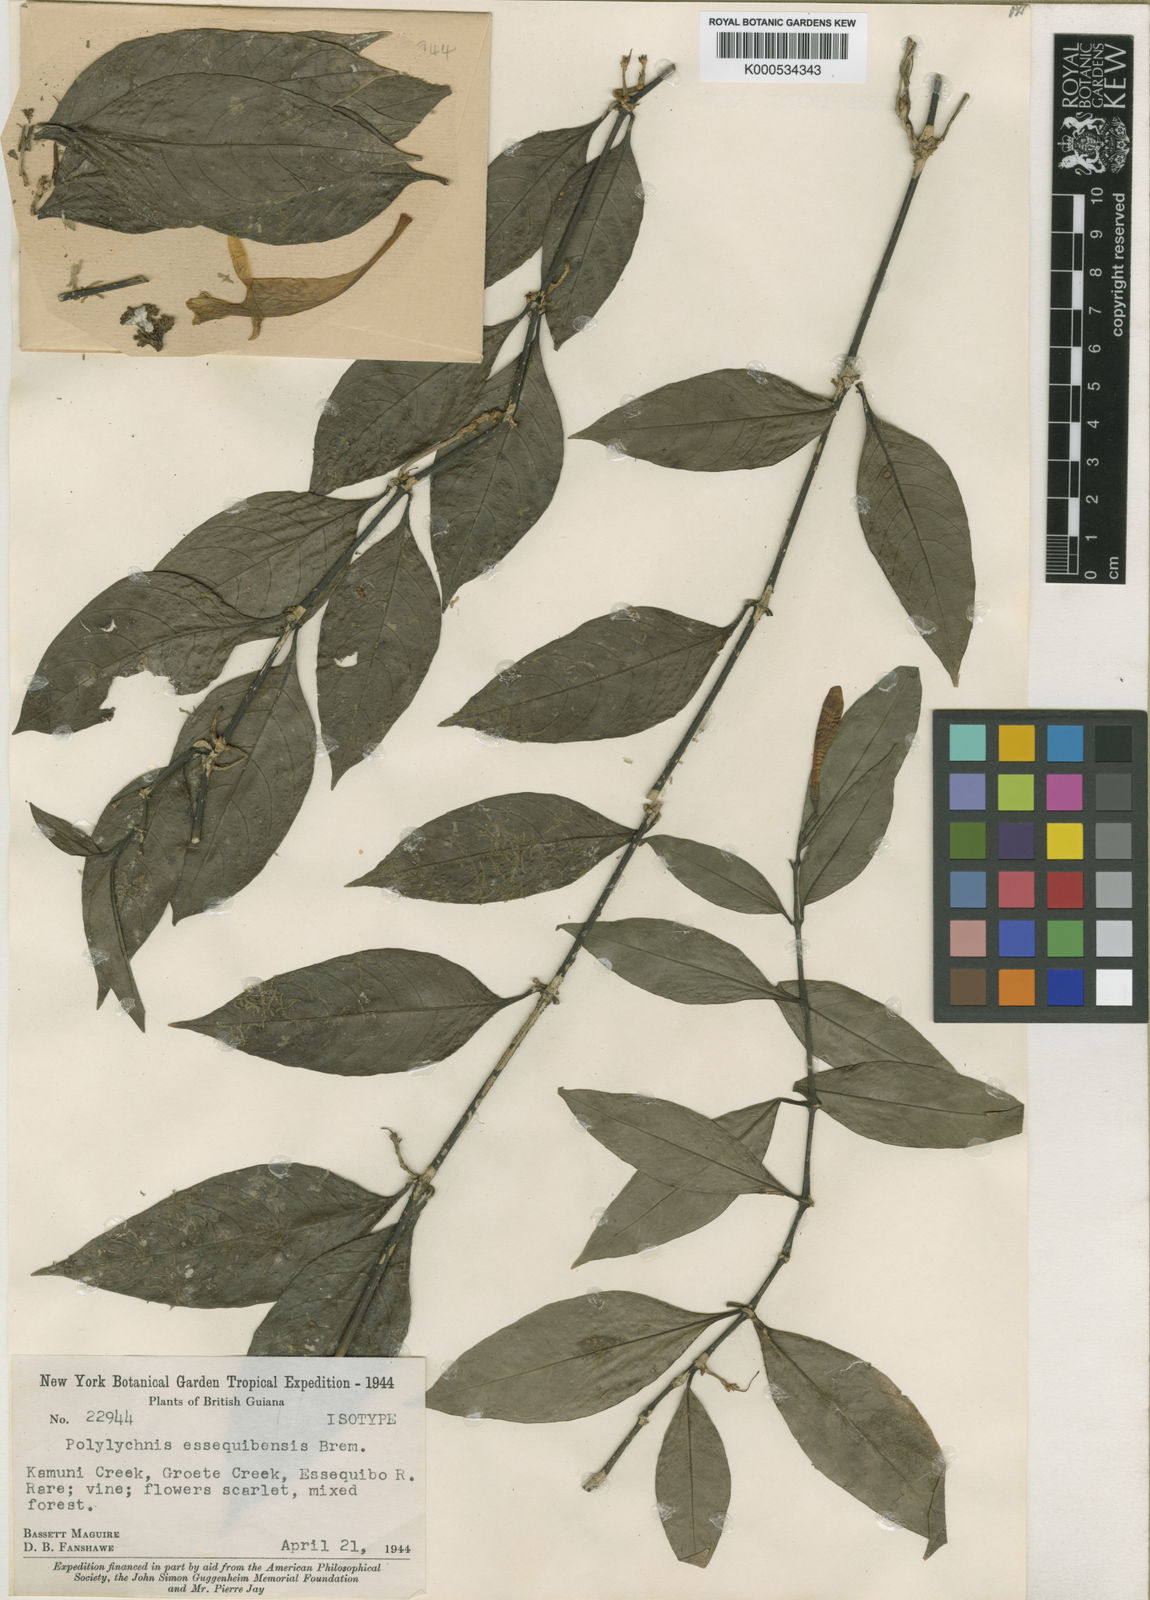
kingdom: Plantae
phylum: Tracheophyta
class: Magnoliopsida
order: Lamiales
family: Acanthaceae
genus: Ruellia
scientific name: Ruellia radicans
